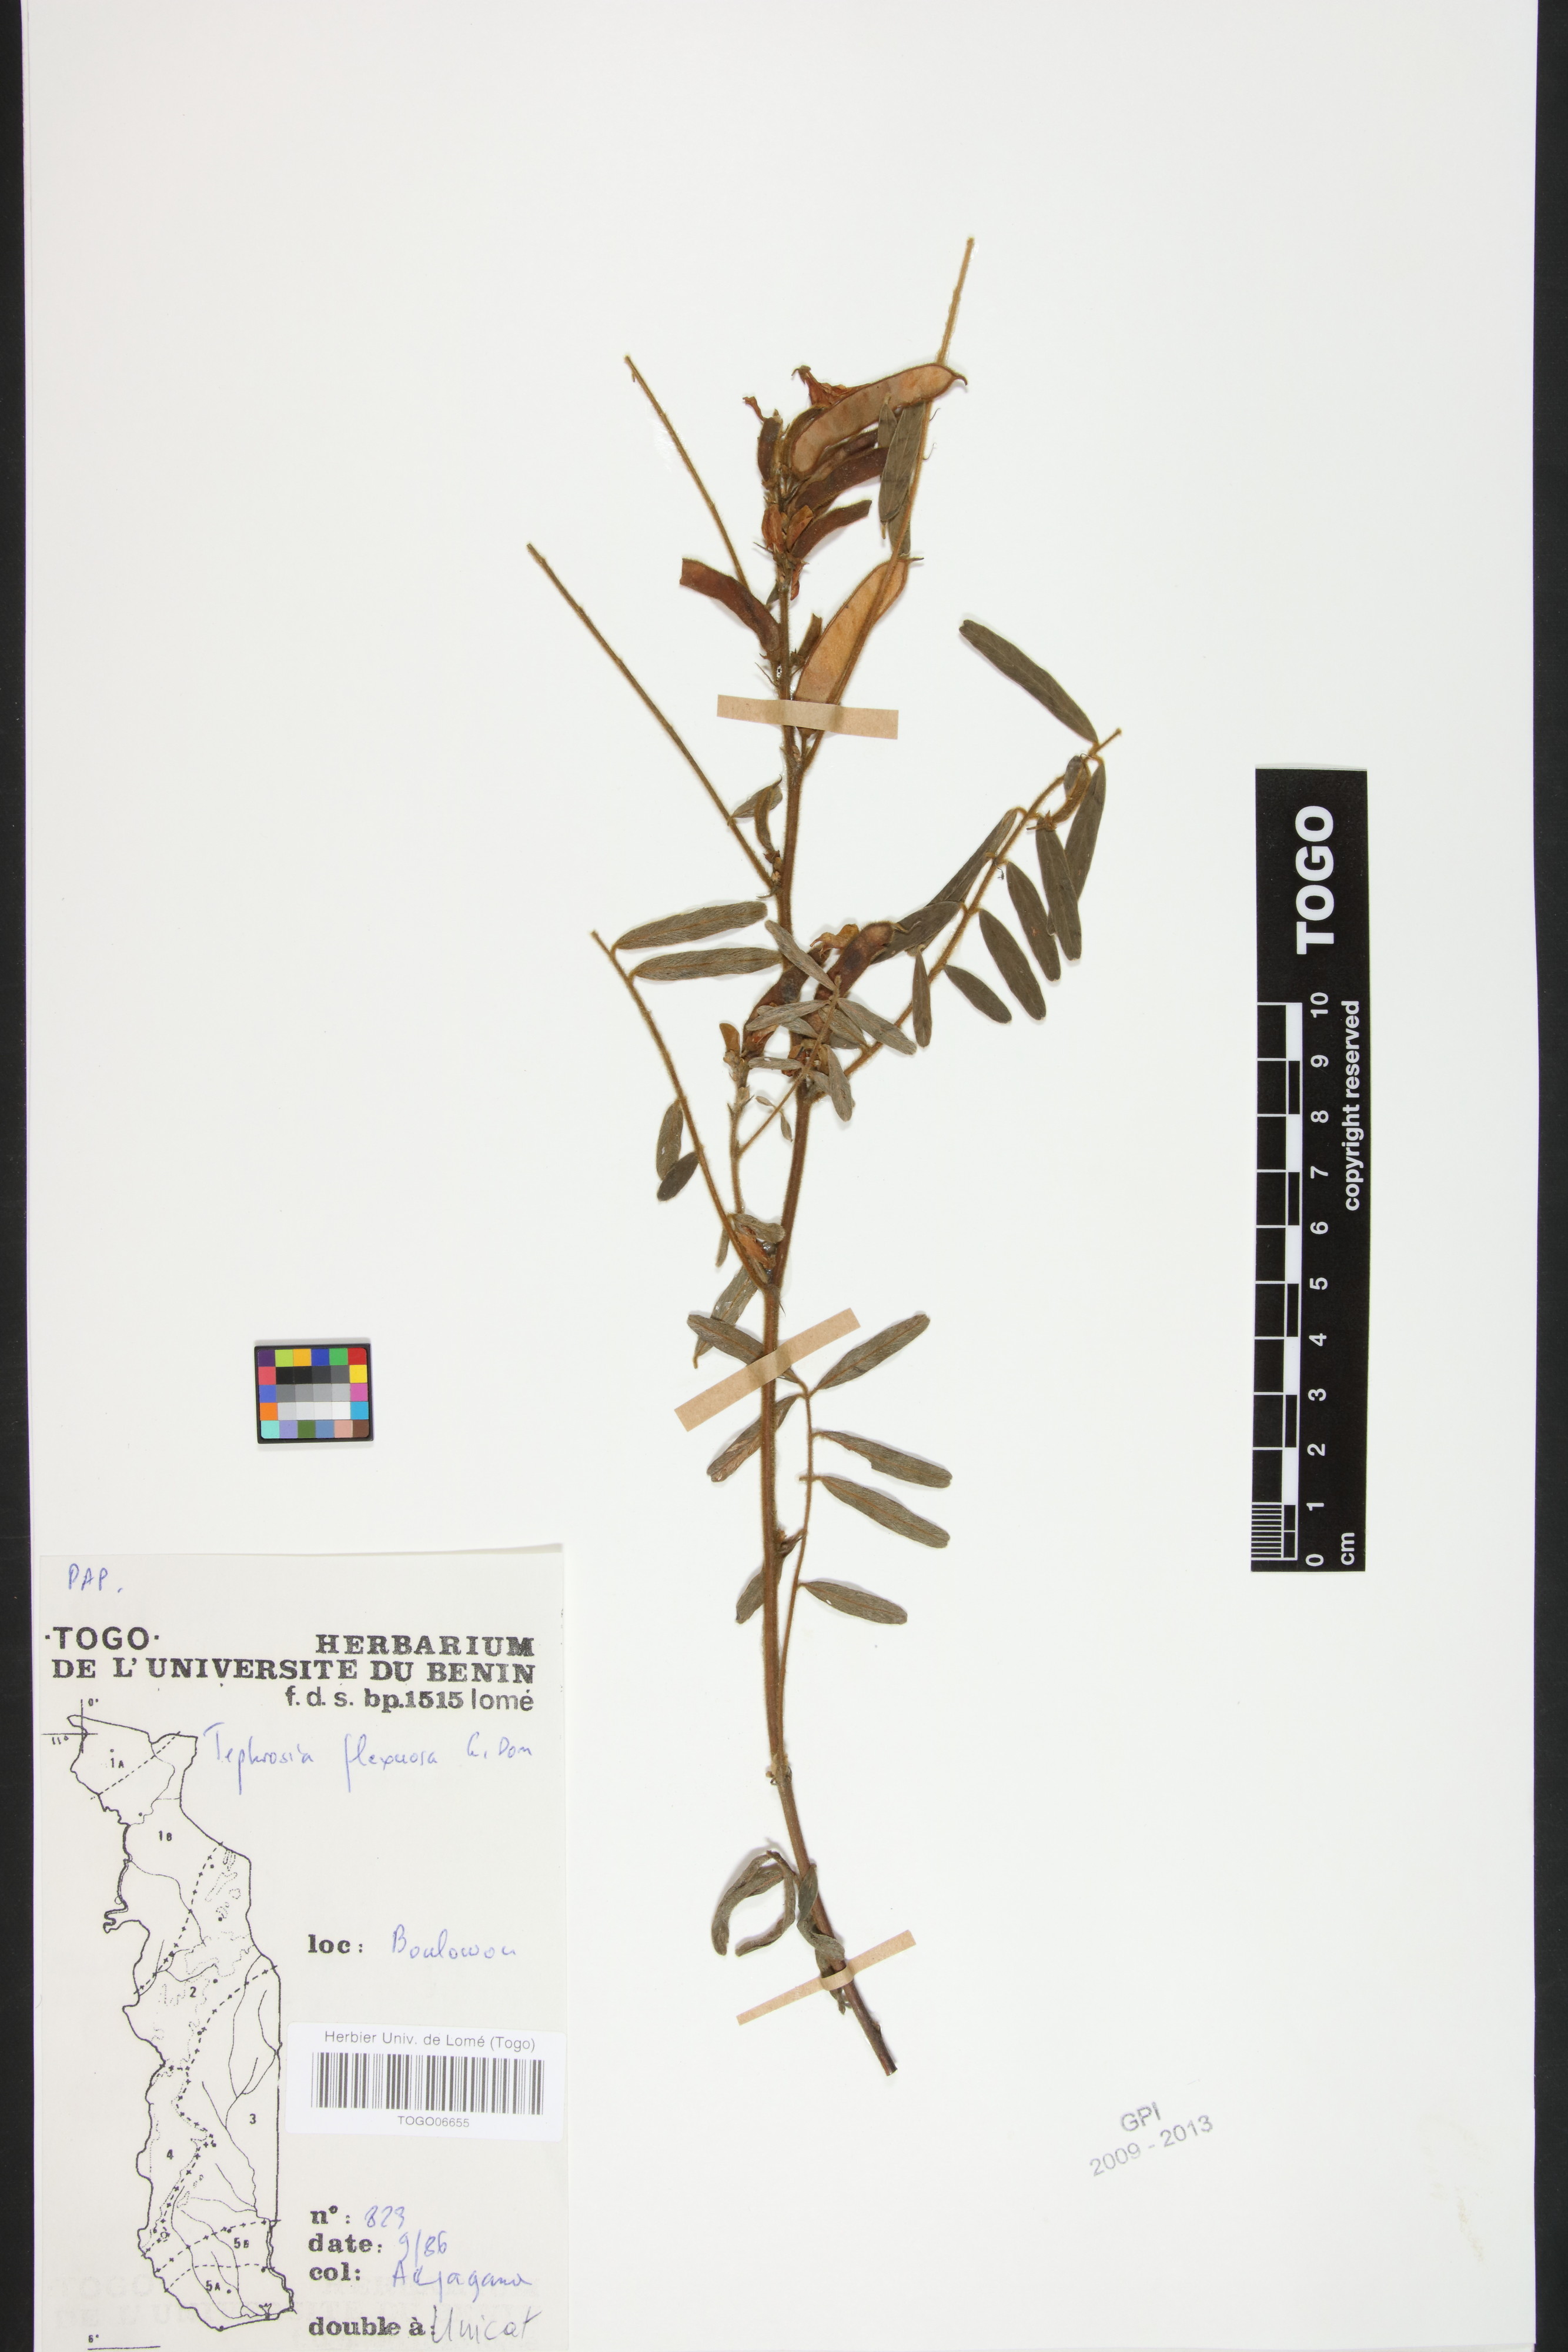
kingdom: Plantae
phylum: Tracheophyta
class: Magnoliopsida
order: Fabales
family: Fabaceae
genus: Tephrosia
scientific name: Tephrosia flexuosa
